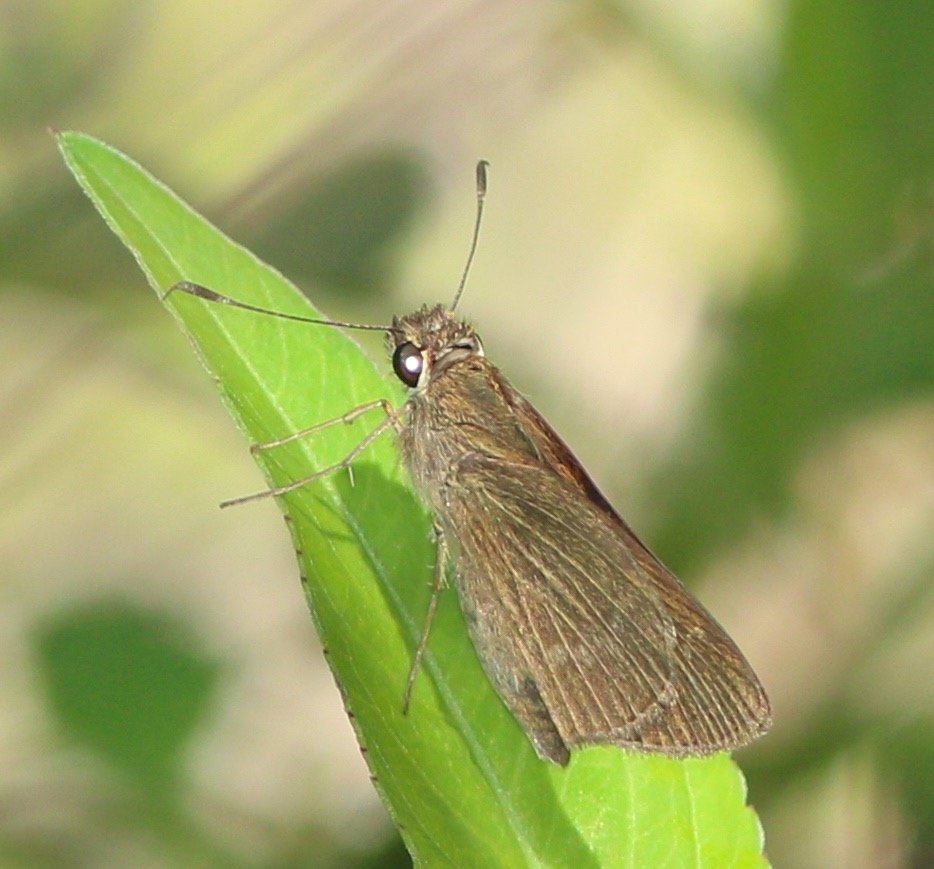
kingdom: Animalia
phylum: Arthropoda
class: Insecta
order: Lepidoptera
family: Hesperiidae
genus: Cymaenes
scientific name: Cymaenes tripunctus
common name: Three-spotted Skipper
